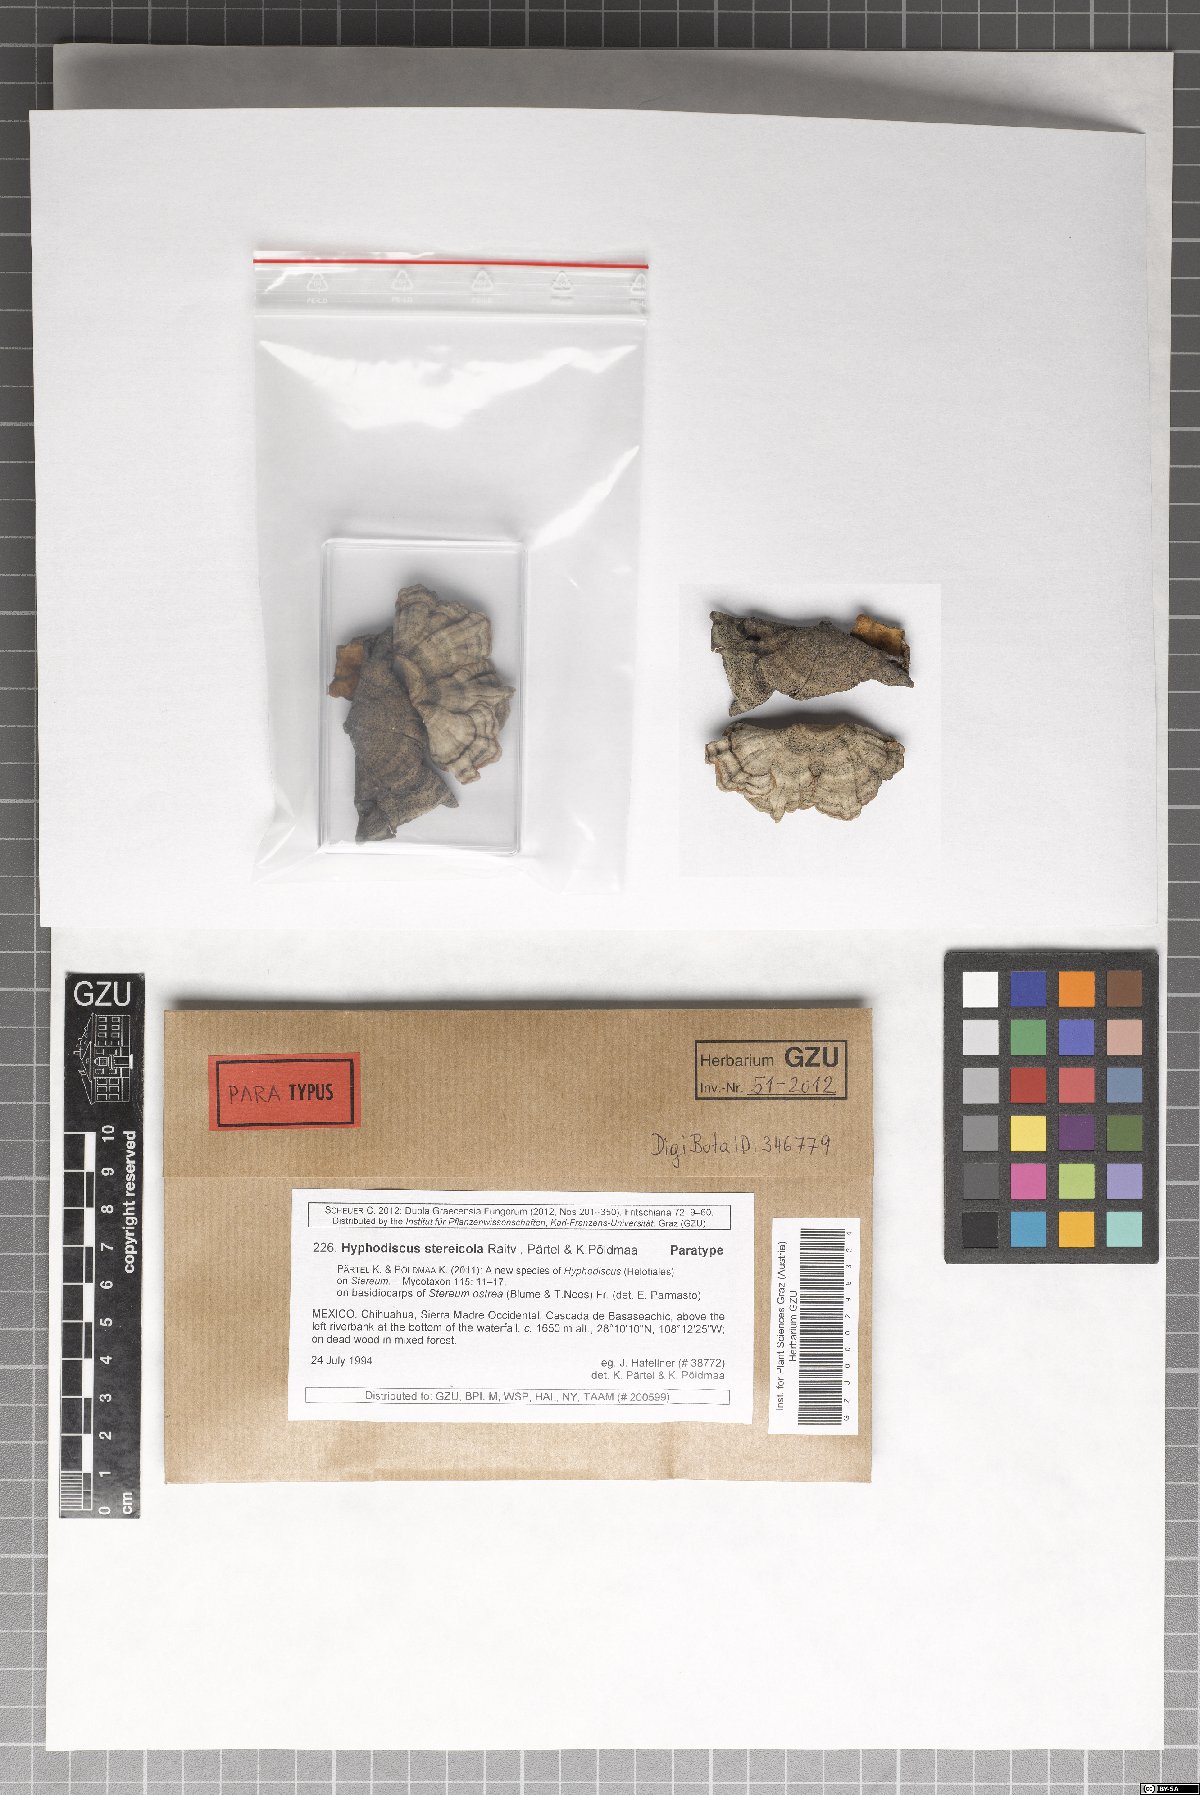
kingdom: Fungi
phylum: Ascomycota
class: Leotiomycetes
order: Helotiales
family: Hyphodiscaceae
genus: Hyphodiscus
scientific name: Hyphodiscus stereicola
